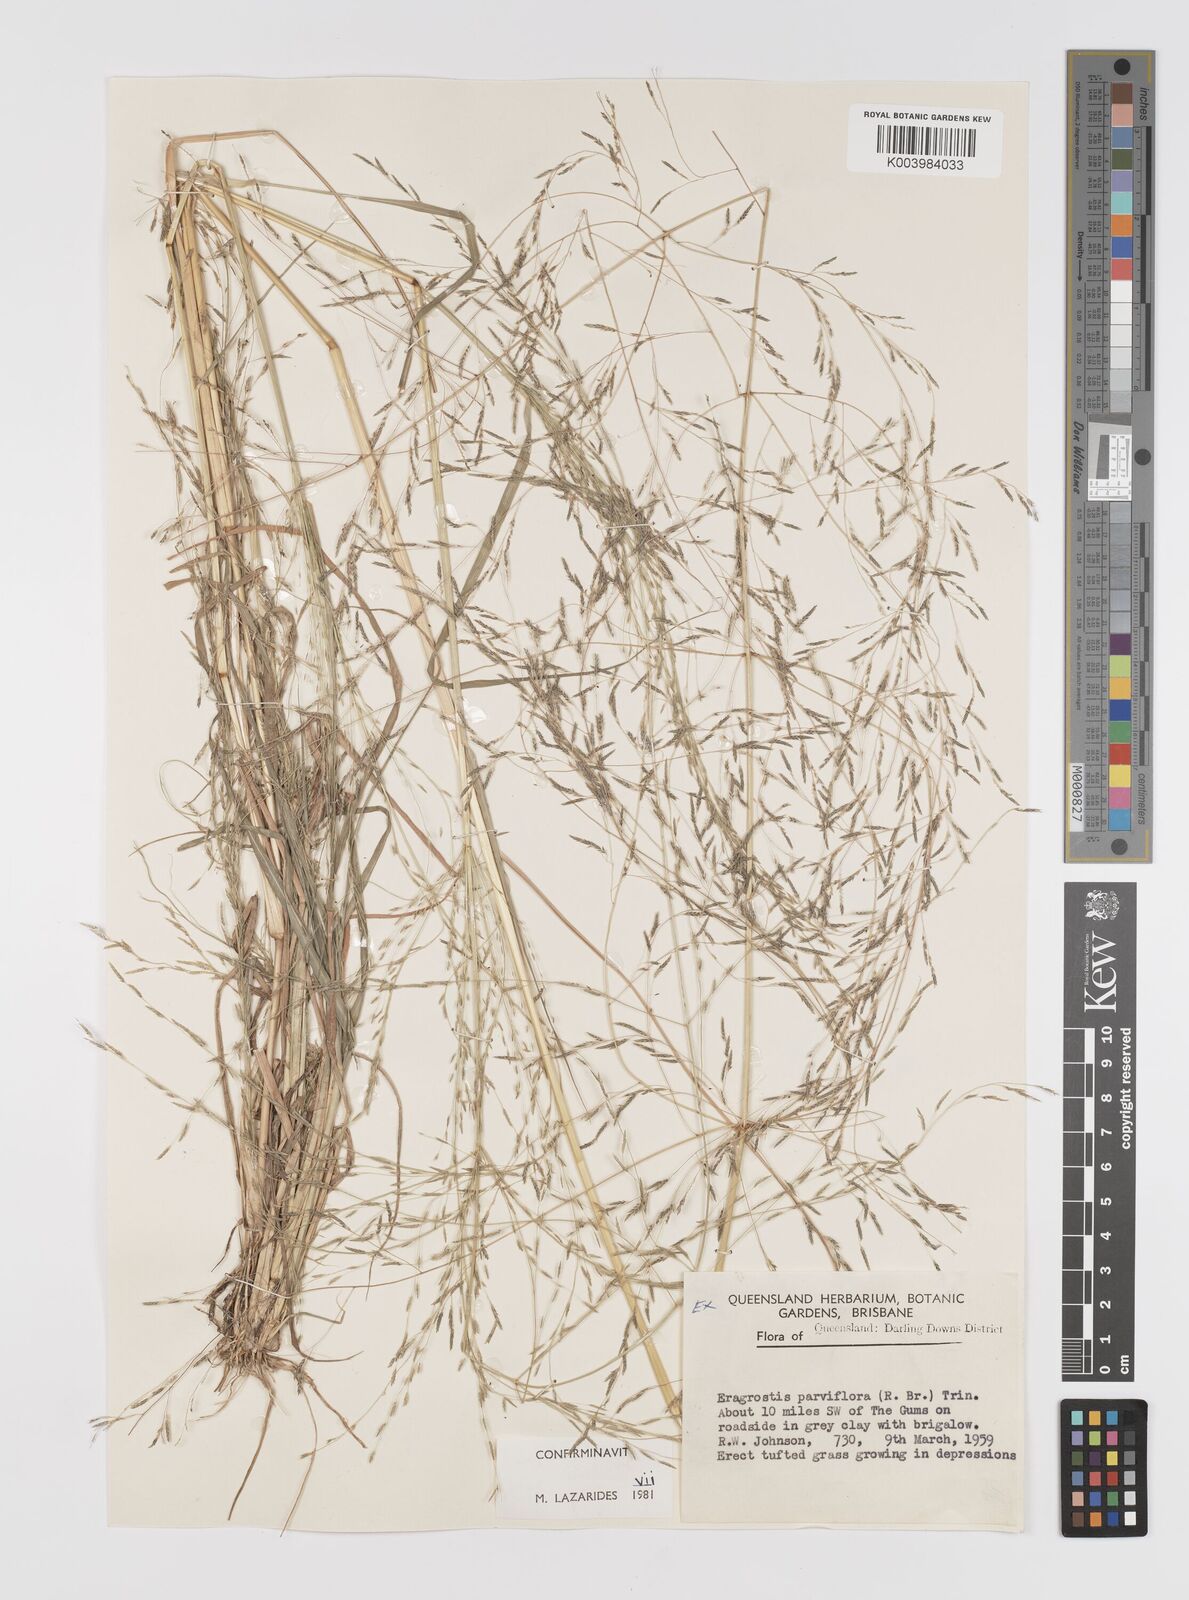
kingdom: Plantae
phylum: Tracheophyta
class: Liliopsida
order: Poales
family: Poaceae
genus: Eragrostis
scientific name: Eragrostis parviflora
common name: Weeping love-grass
